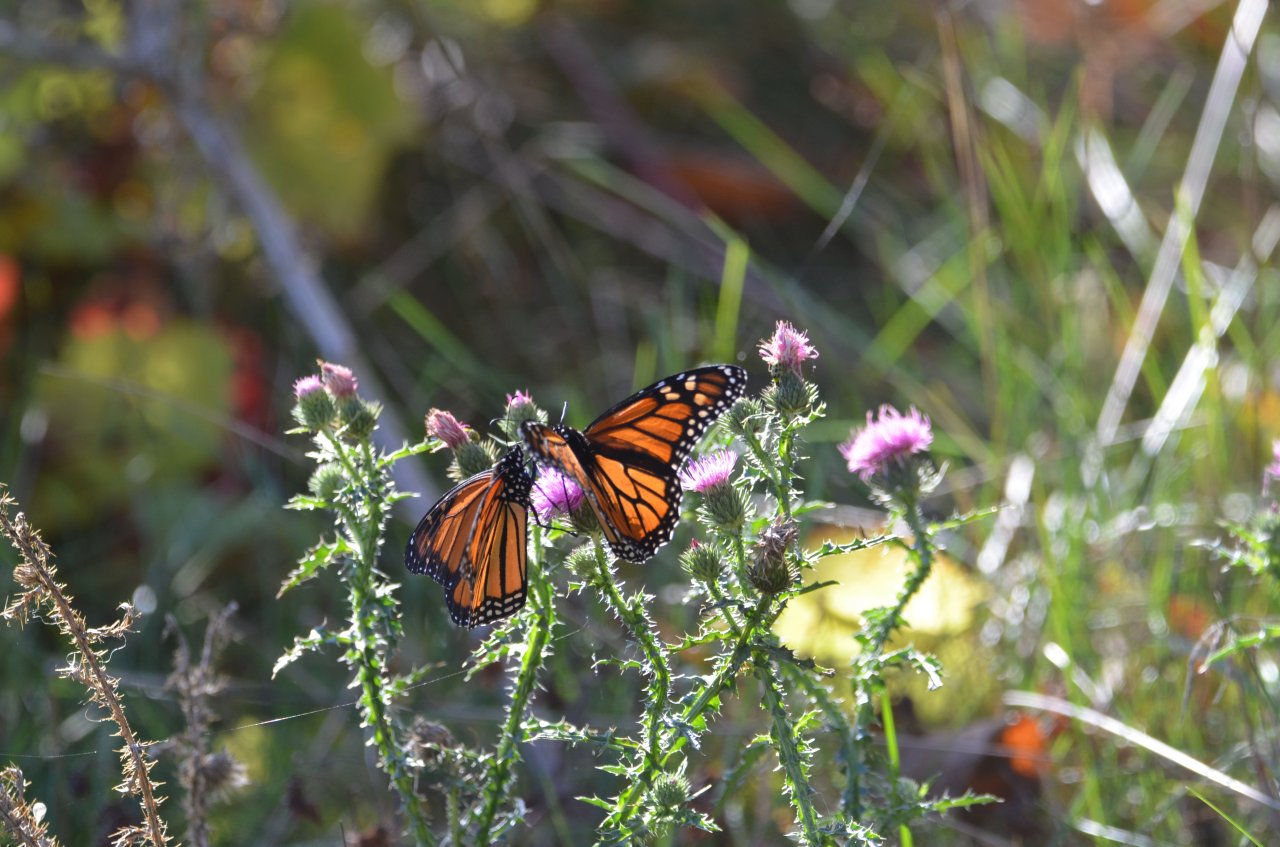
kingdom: Animalia
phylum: Arthropoda
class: Insecta
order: Lepidoptera
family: Nymphalidae
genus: Danaus
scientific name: Danaus plexippus
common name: Monarch
